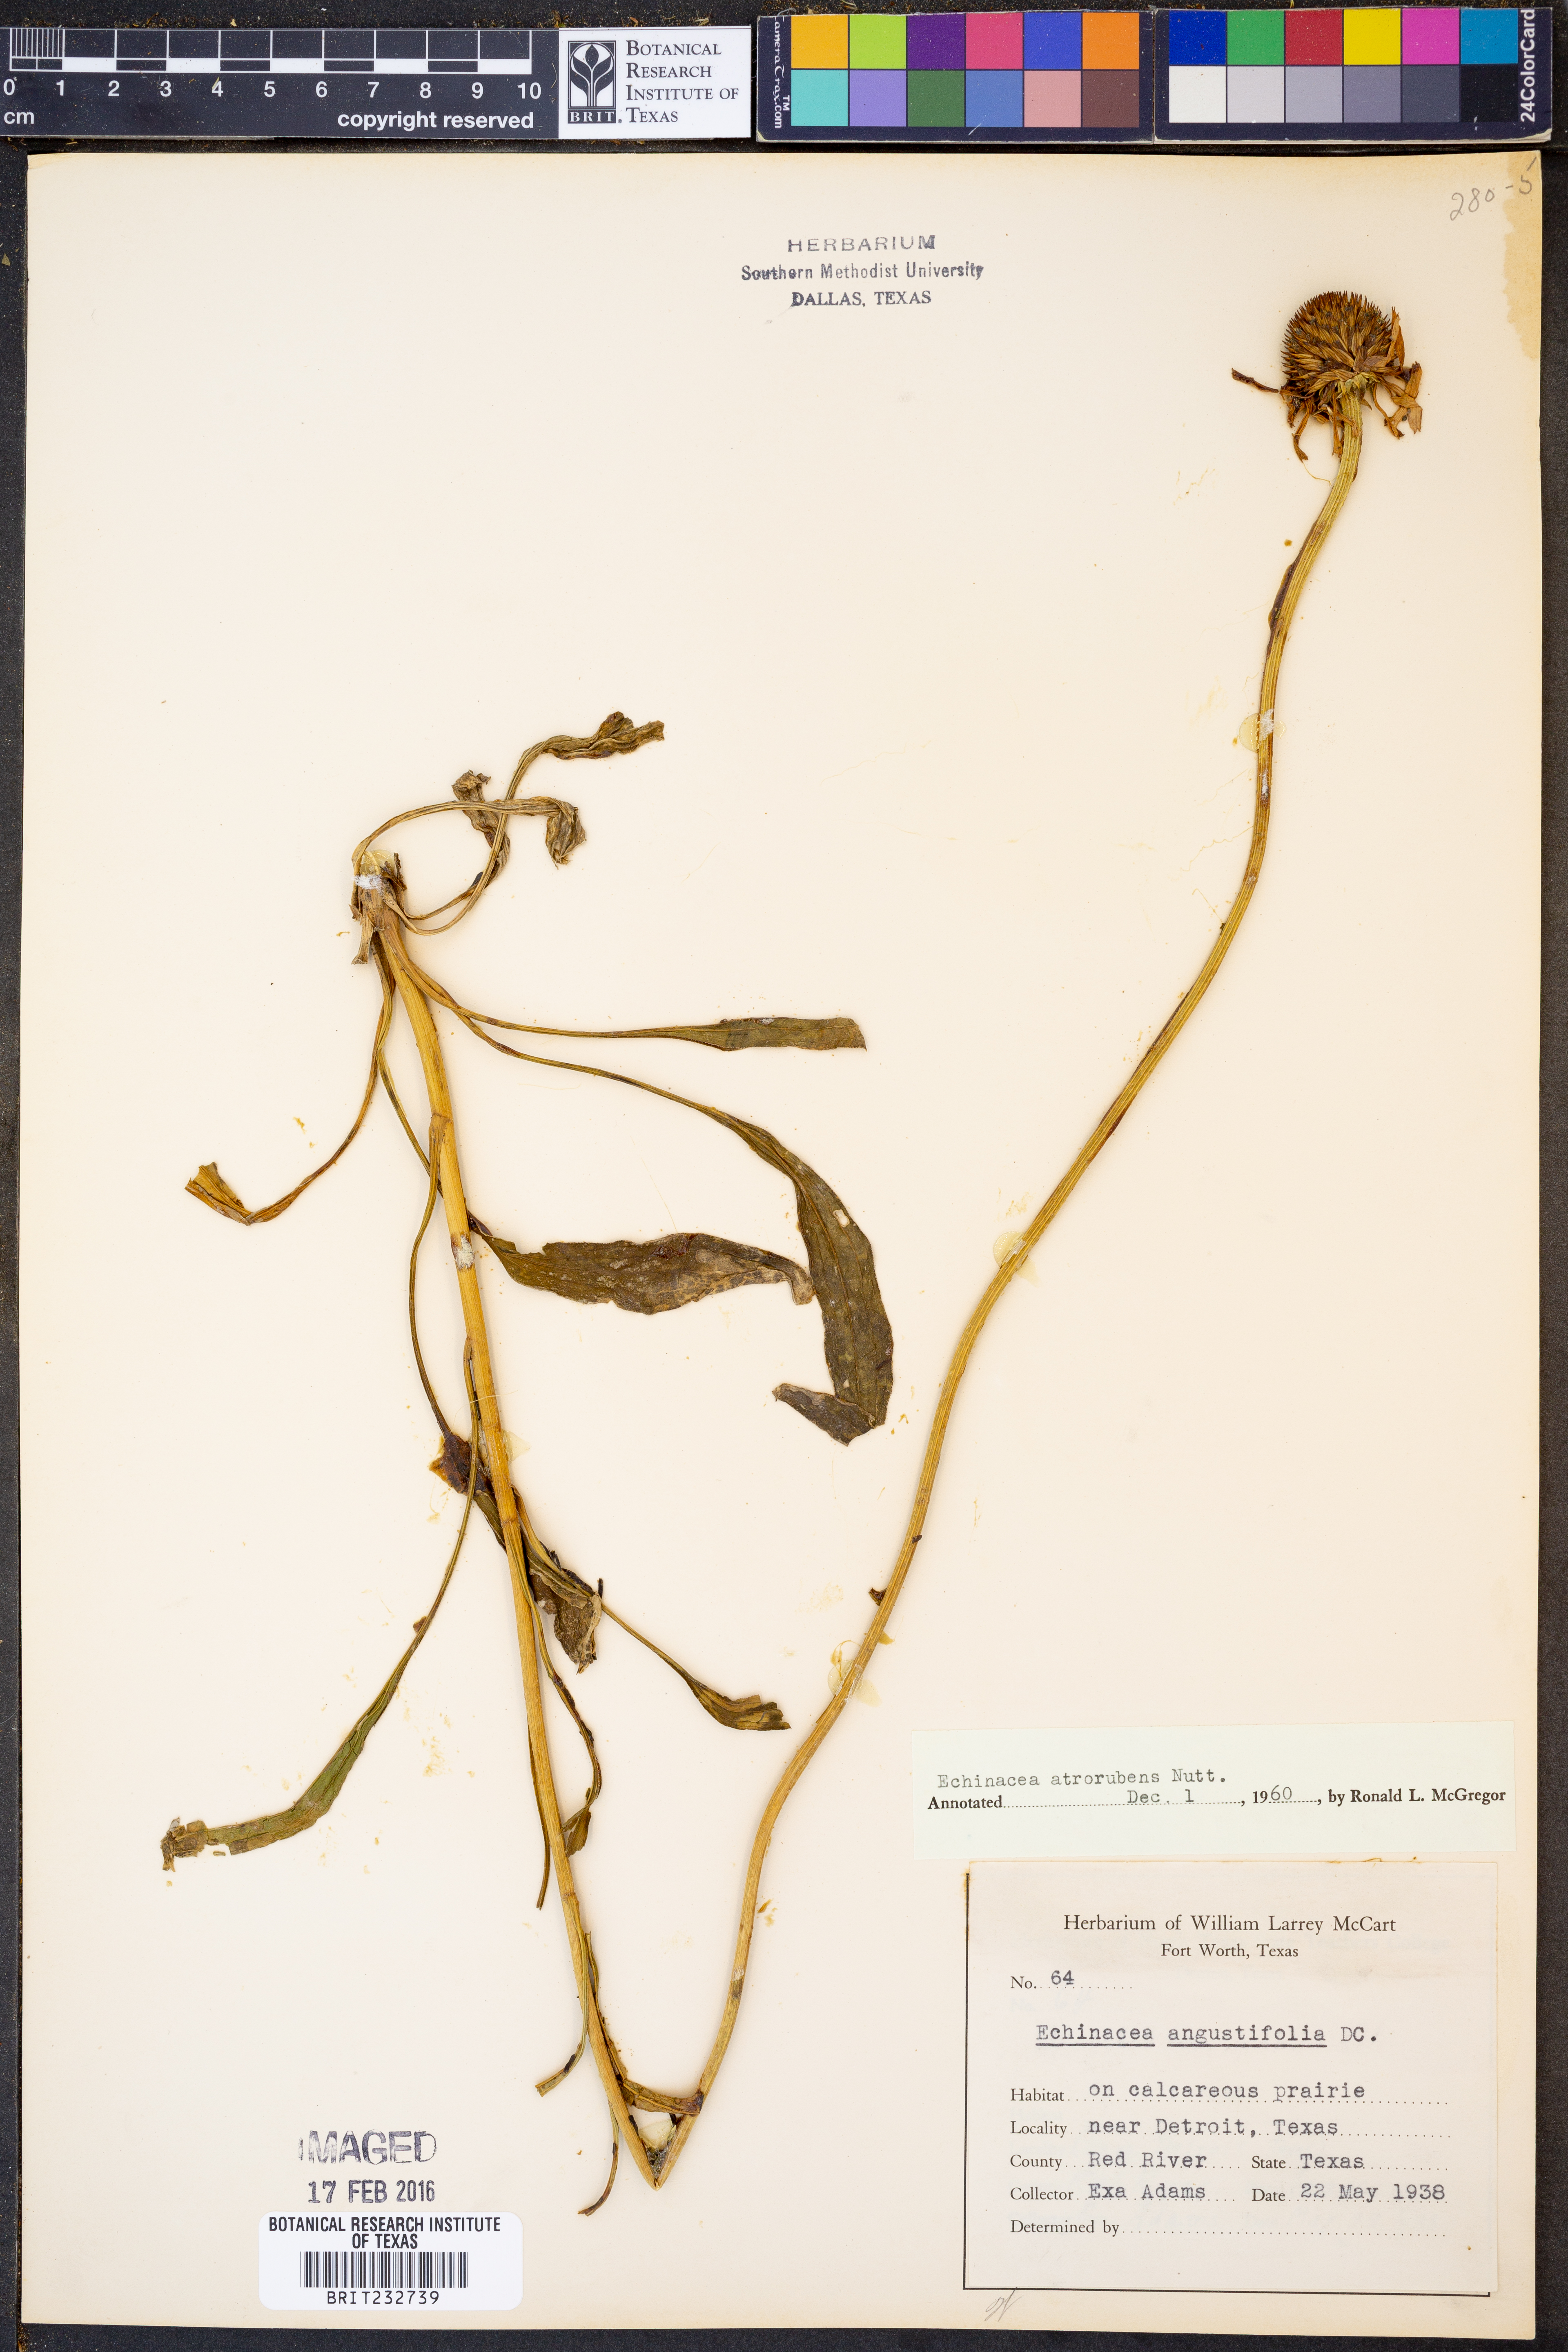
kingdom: Plantae
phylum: Tracheophyta
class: Magnoliopsida
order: Asterales
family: Asteraceae
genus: Echinacea
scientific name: Echinacea atrorubens
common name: Topeka purple-coneflower
